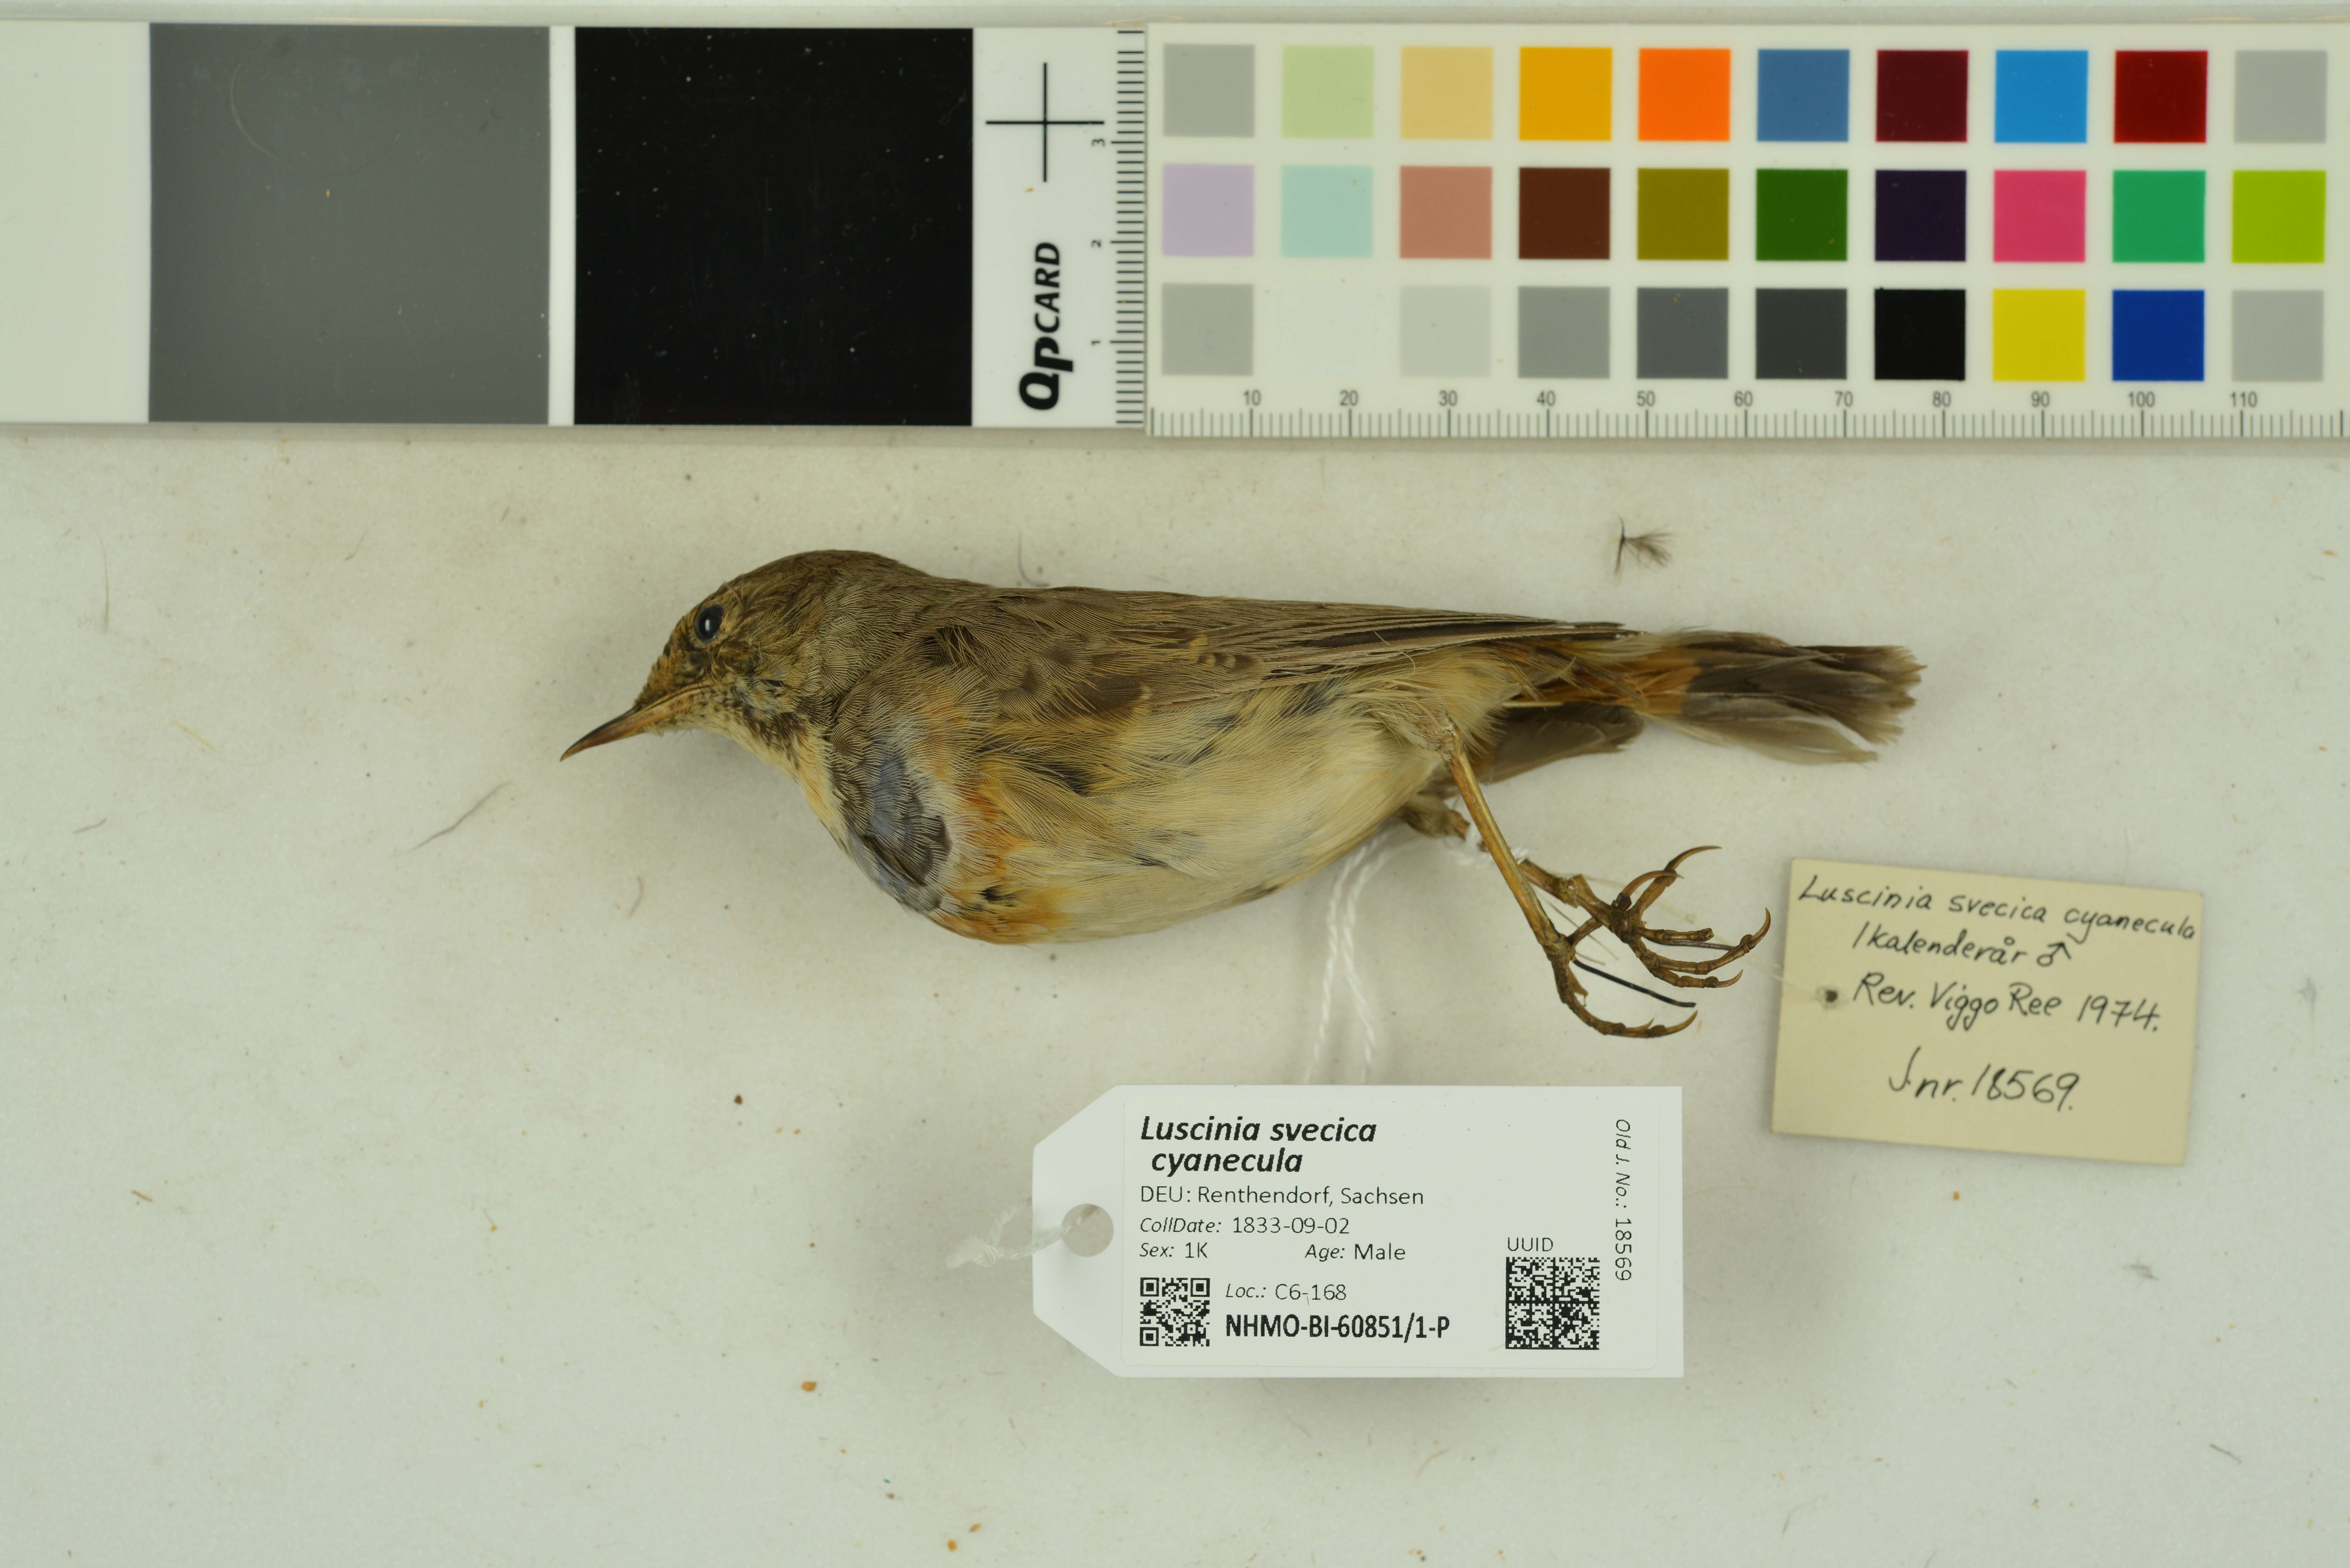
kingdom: Animalia
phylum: Chordata
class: Aves
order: Passeriformes
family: Muscicapidae
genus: Luscinia
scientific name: Luscinia svecica
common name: Bluethroat
